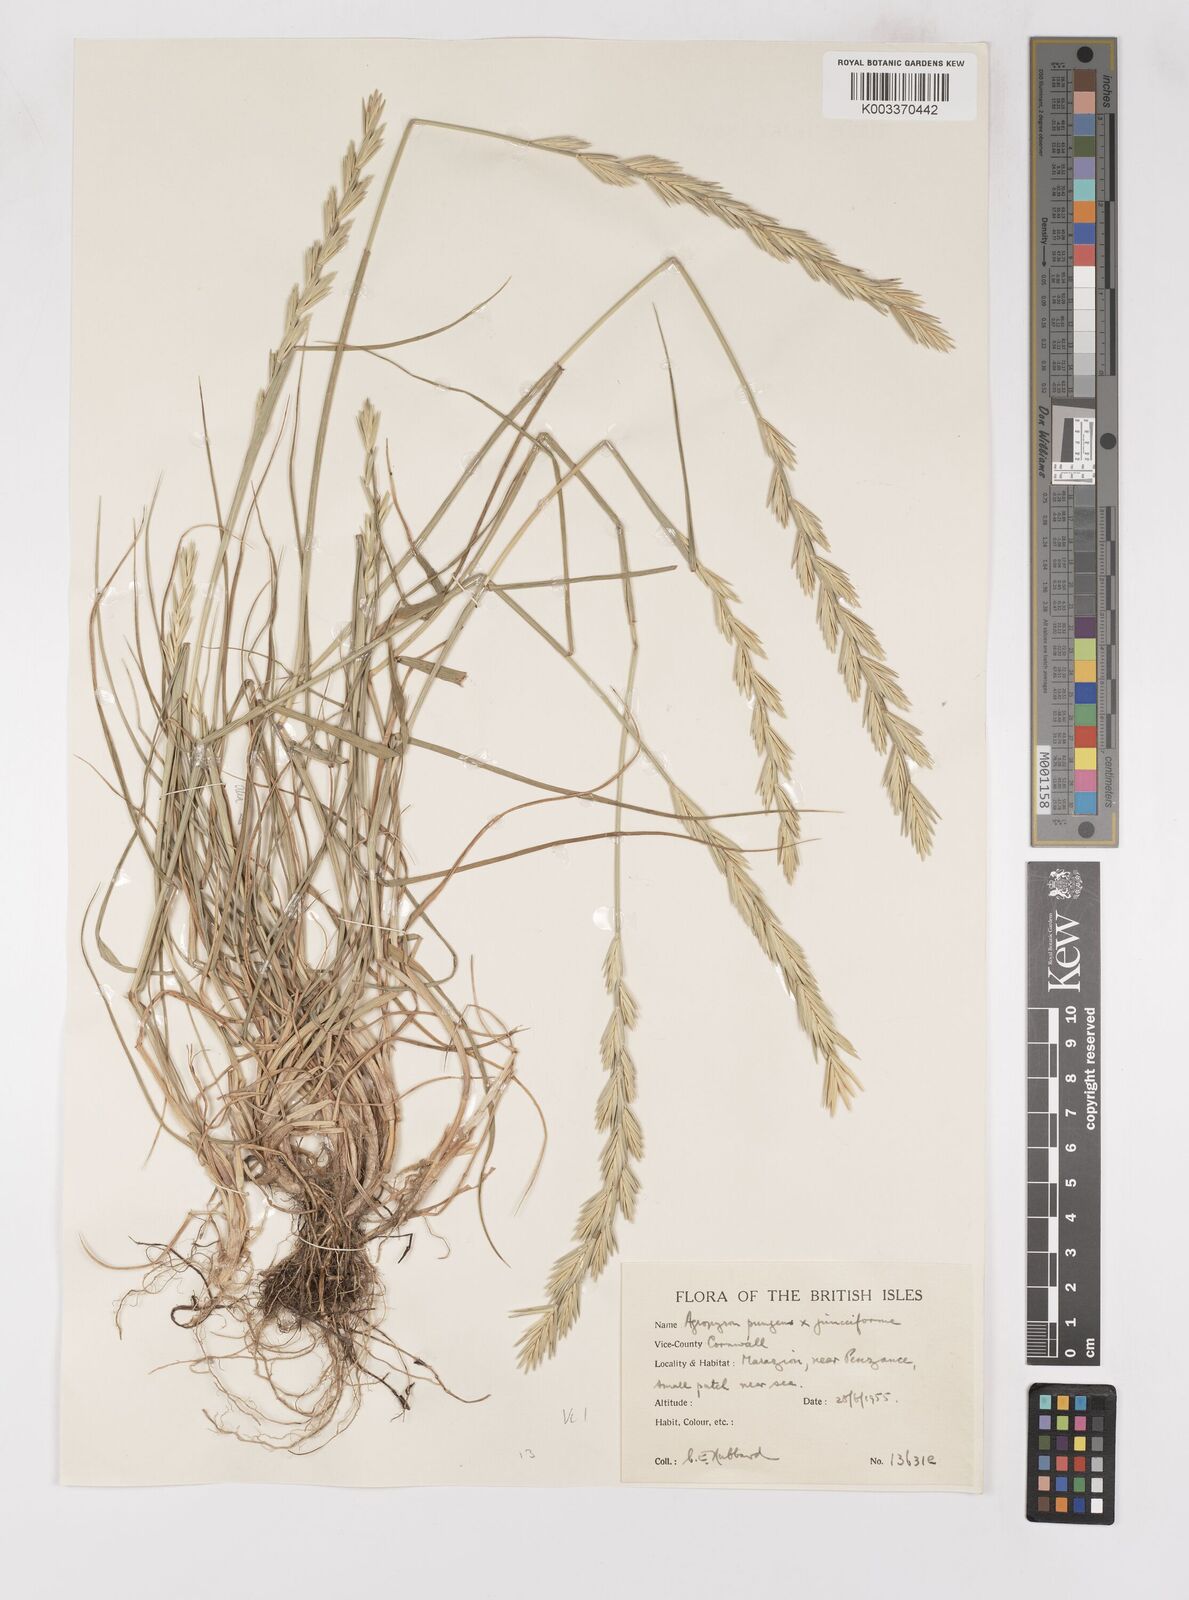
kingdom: Plantae
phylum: Tracheophyta
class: Liliopsida
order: Poales
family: Poaceae
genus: Thinoelymus
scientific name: Thinoelymus obtusiusculus
